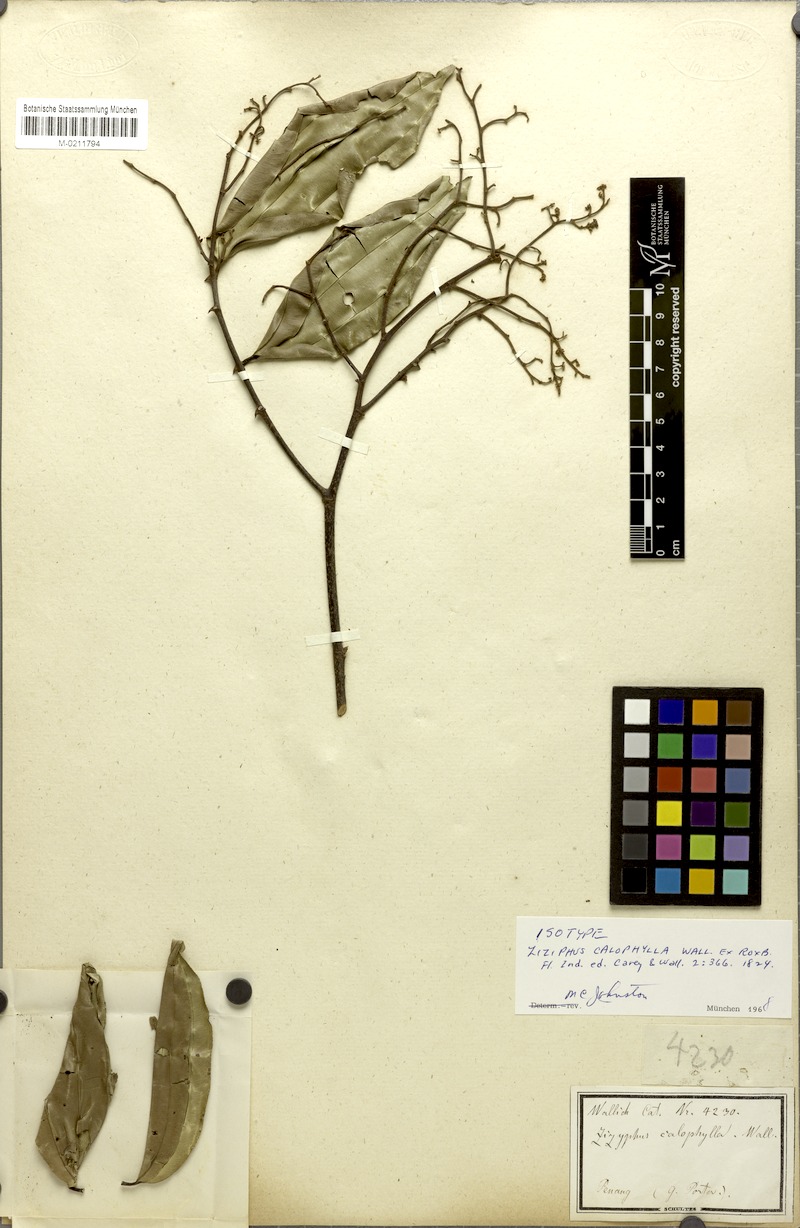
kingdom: Plantae
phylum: Tracheophyta
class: Magnoliopsida
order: Rosales
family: Rhamnaceae
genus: Ziziphus
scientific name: Ziziphus calophylla
